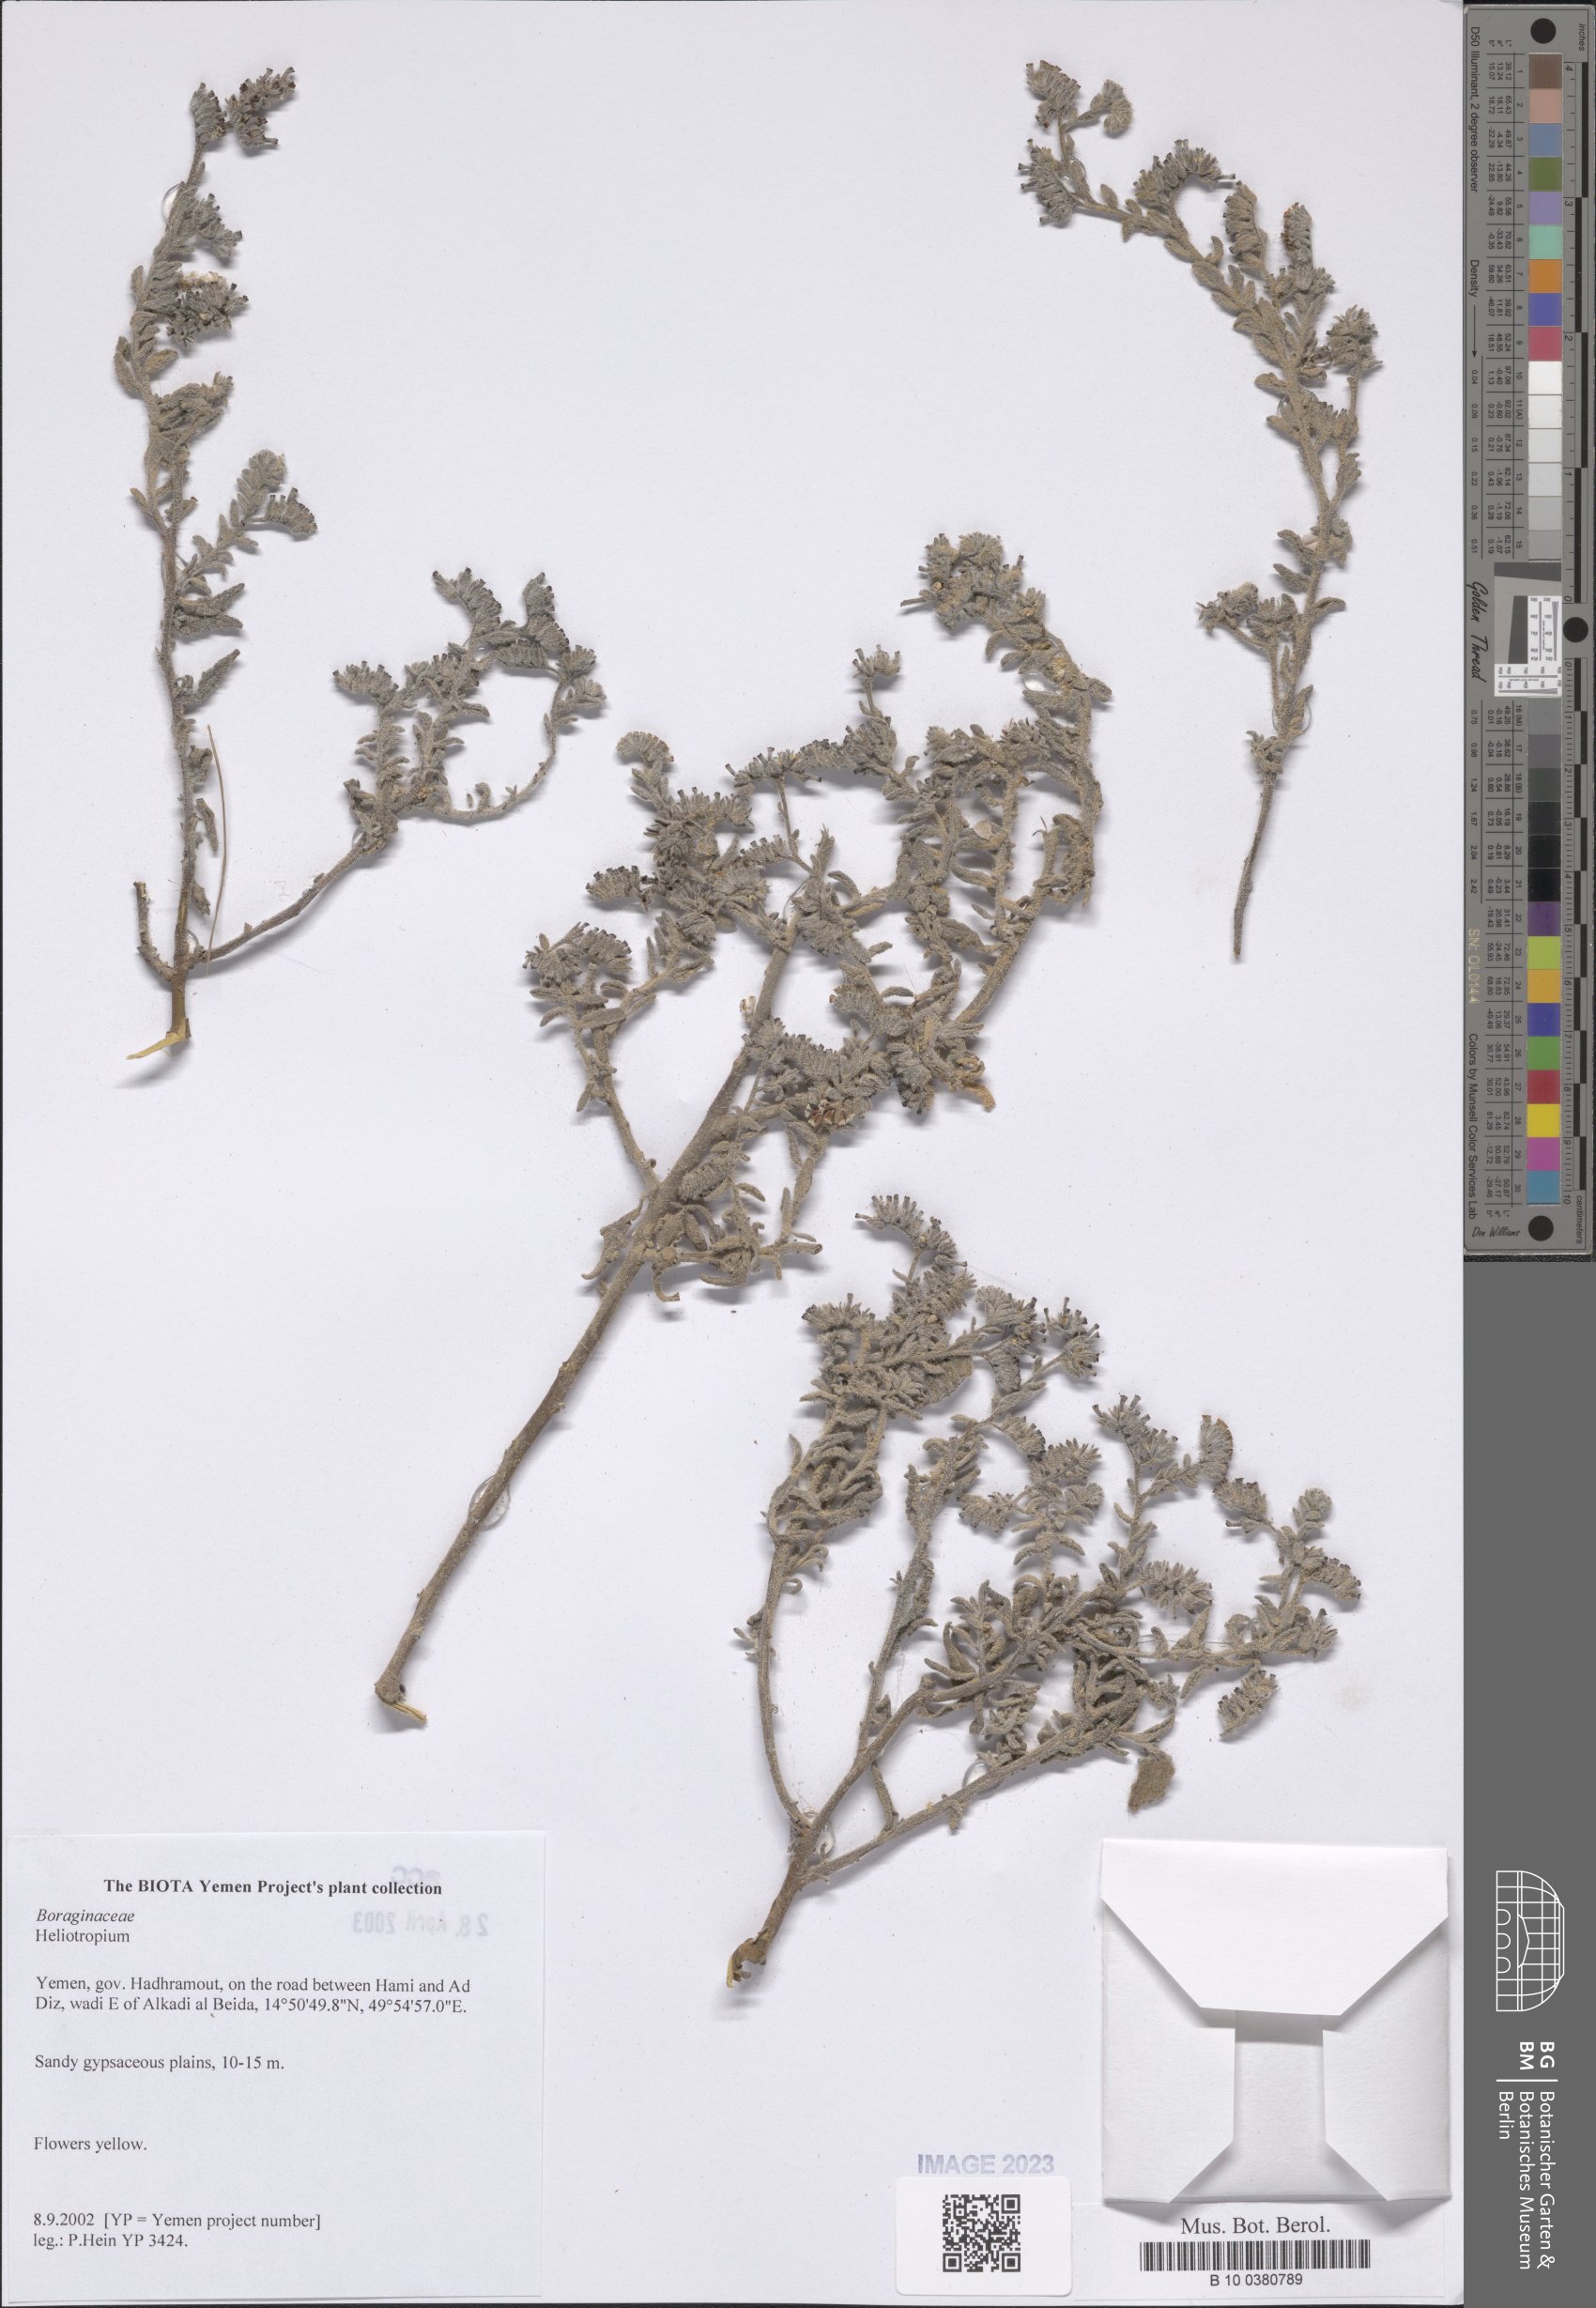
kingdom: Plantae
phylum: Tracheophyta
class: Magnoliopsida
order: Boraginales
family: Heliotropiaceae
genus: Heliotropium
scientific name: Heliotropium
